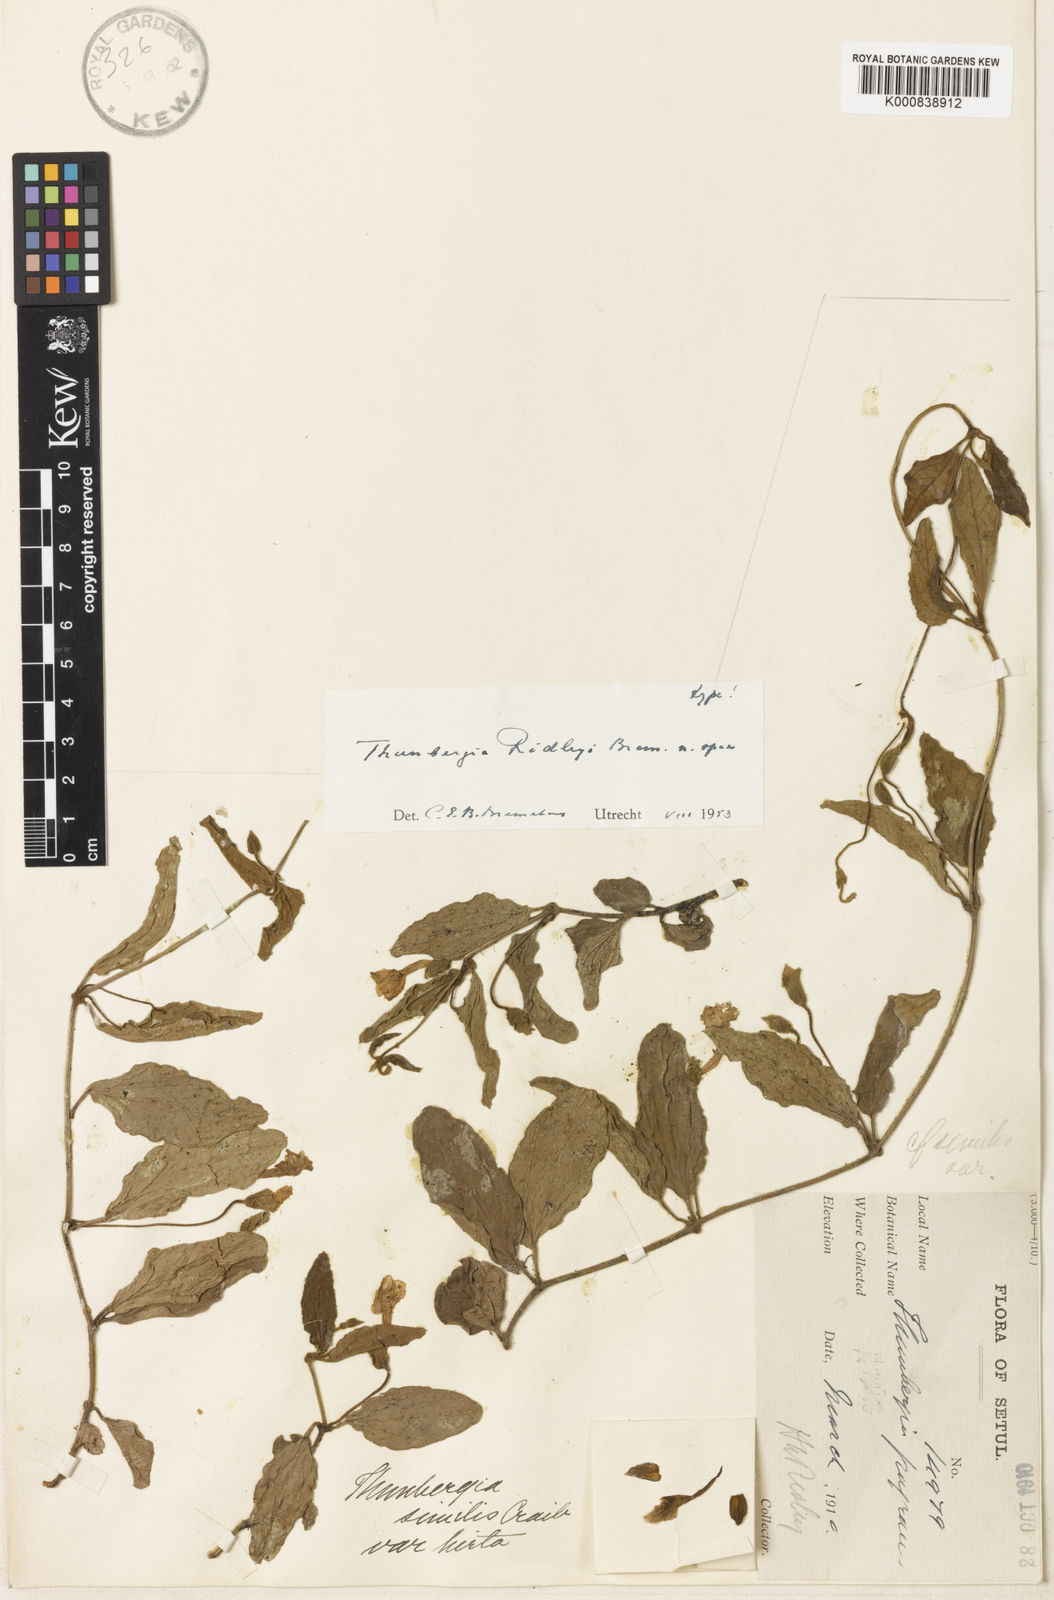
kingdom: Plantae
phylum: Tracheophyta
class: Magnoliopsida
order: Lamiales
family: Acanthaceae
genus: Thunbergia
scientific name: Thunbergia ridleyi
